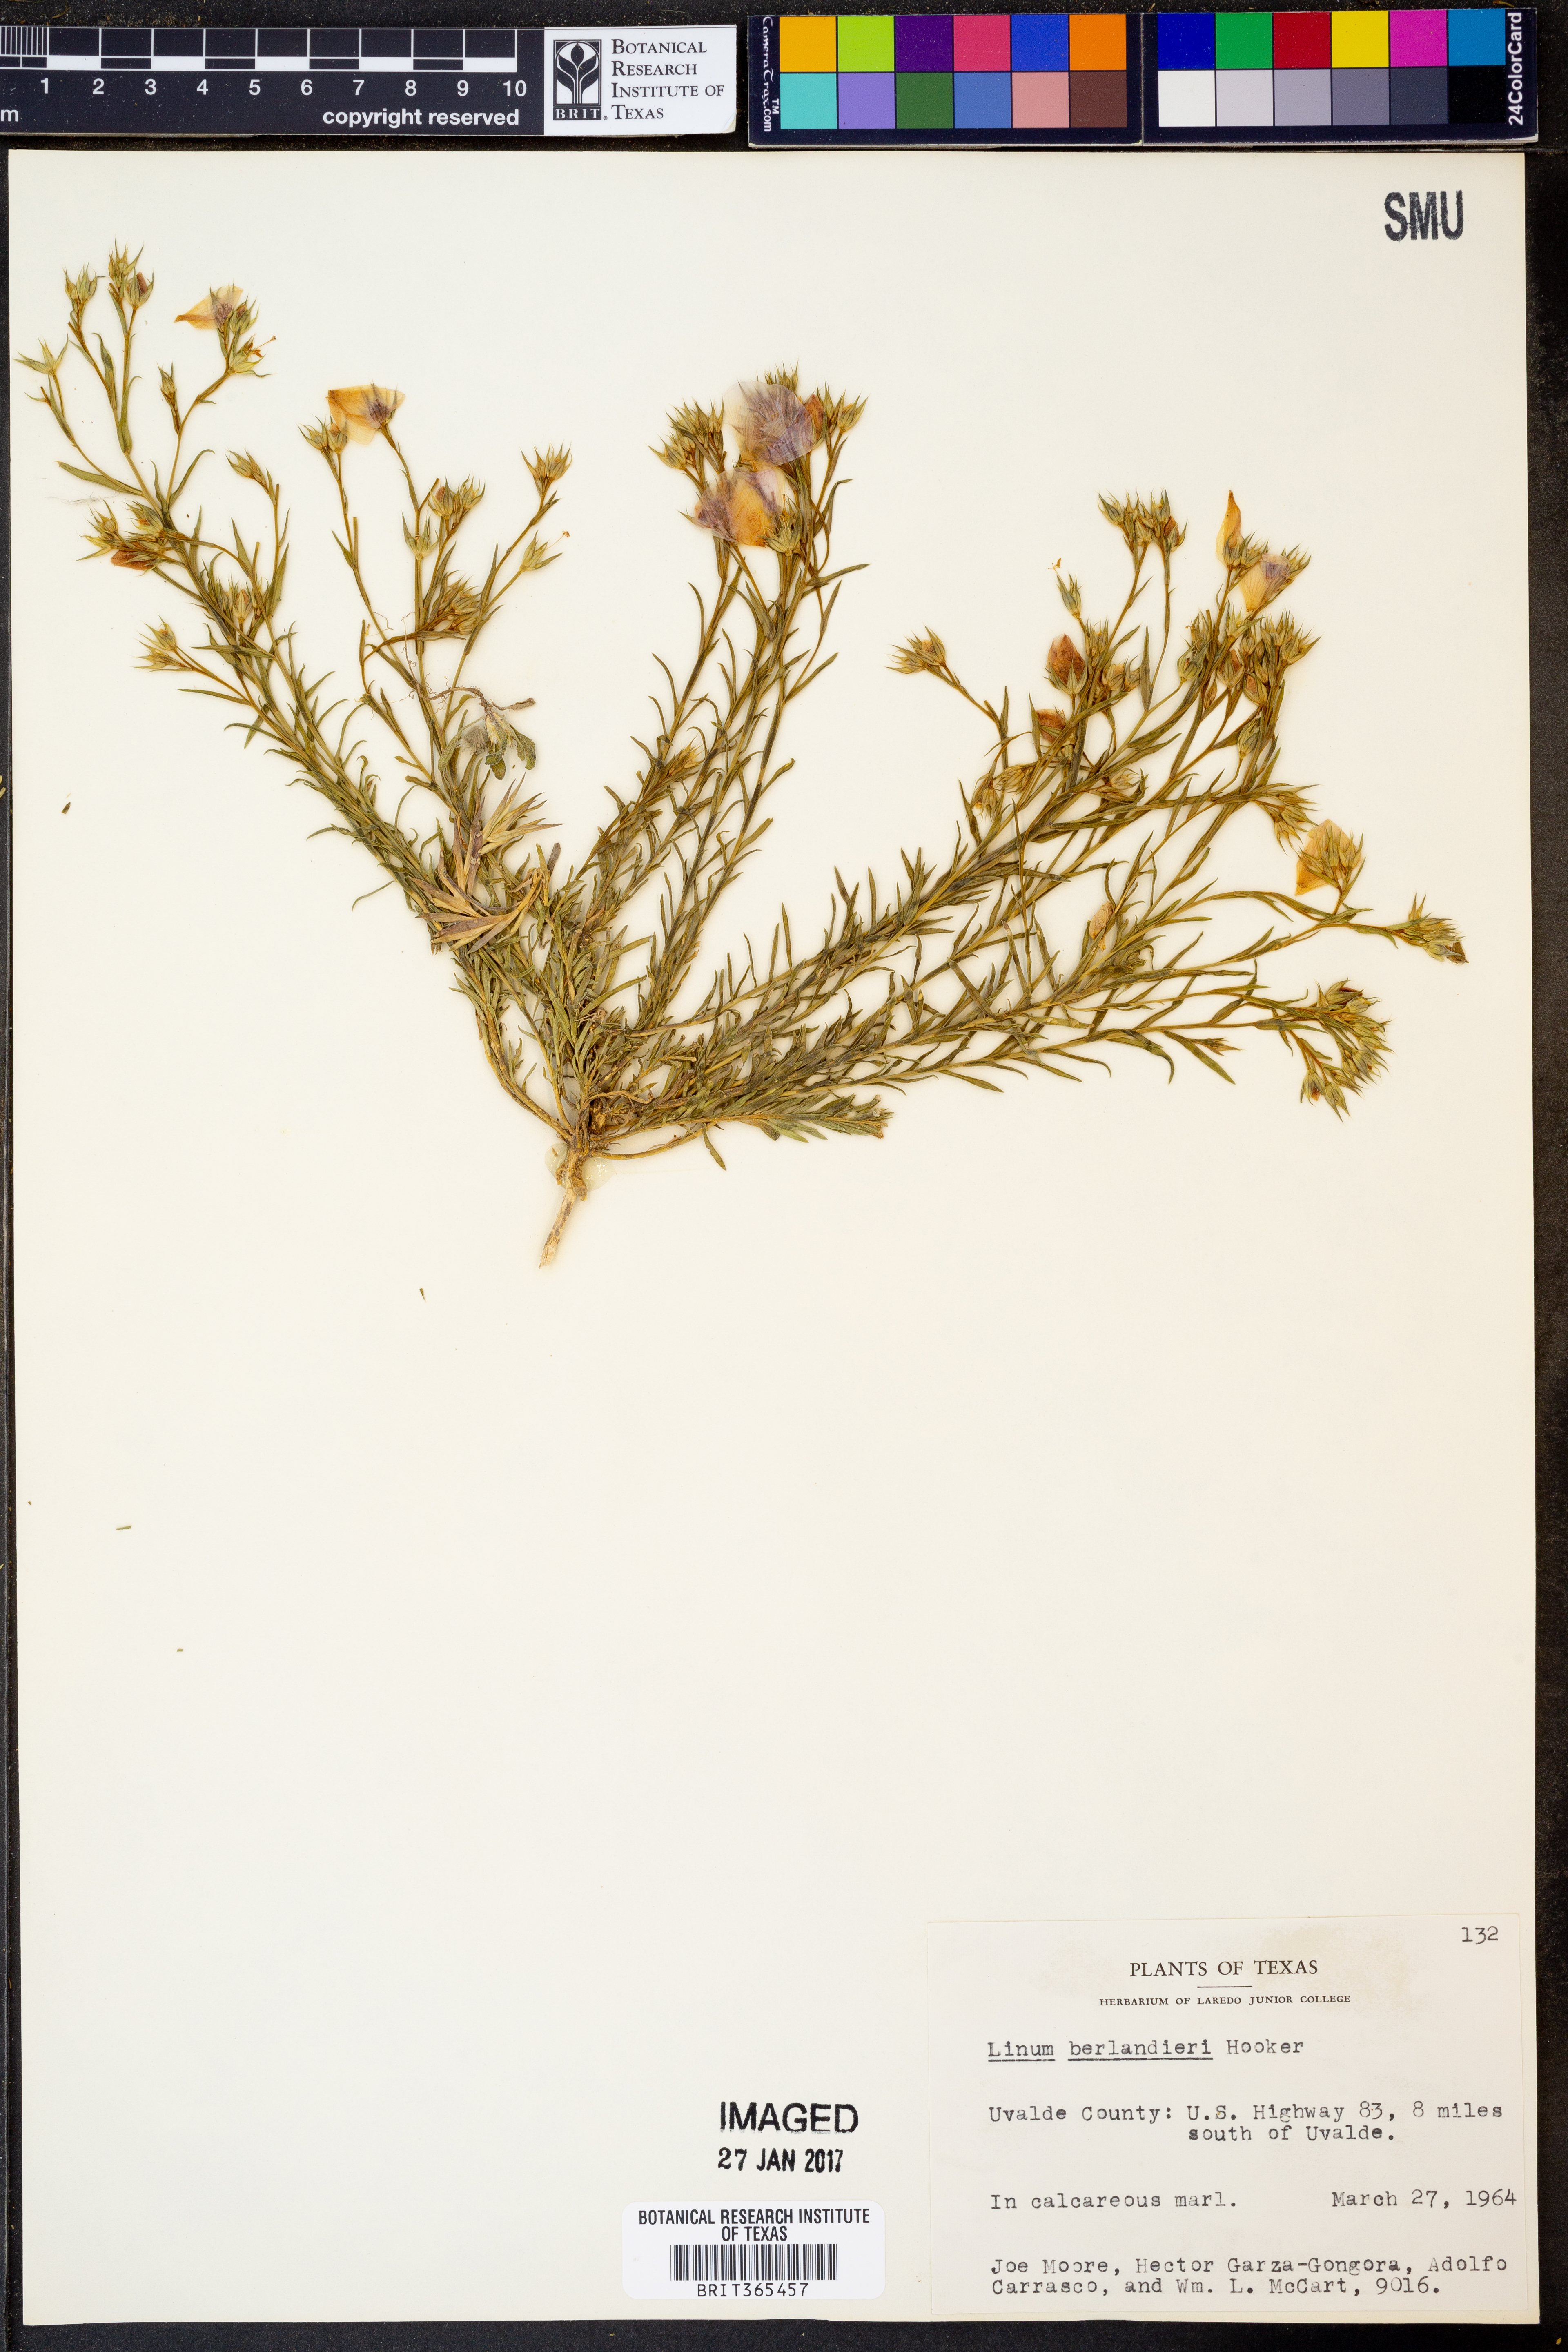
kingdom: Plantae
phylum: Tracheophyta
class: Magnoliopsida
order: Malpighiales
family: Linaceae
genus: Linum
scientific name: Linum berlandieri
